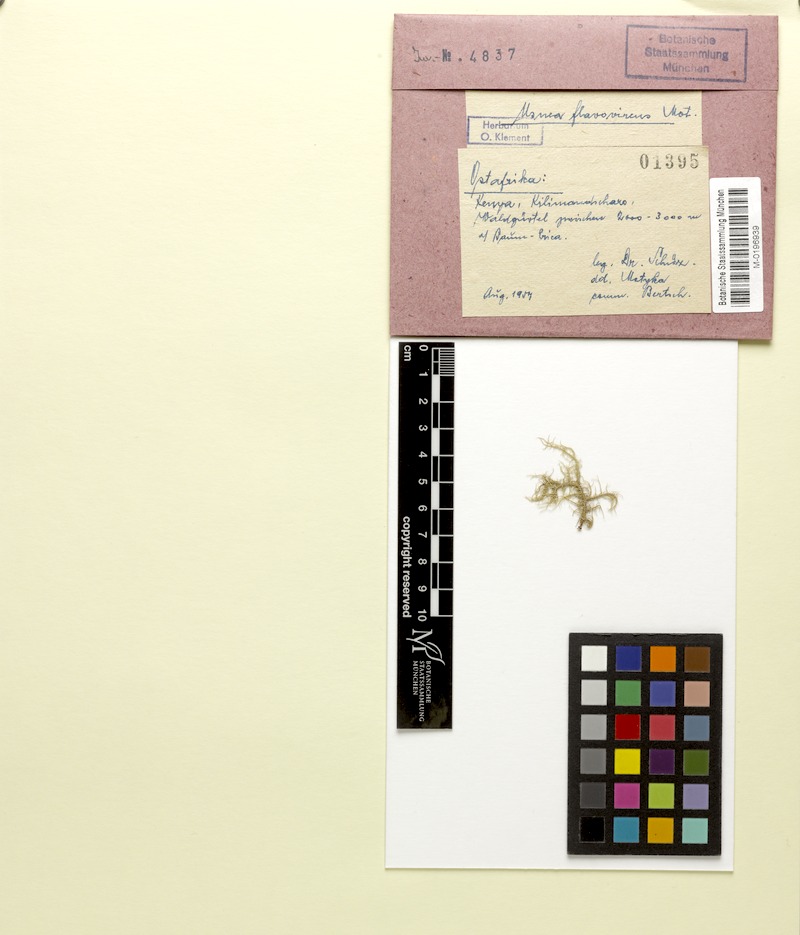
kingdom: Fungi
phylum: Ascomycota
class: Lecanoromycetes
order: Lecanorales
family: Parmeliaceae
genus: Usnea
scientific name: Usnea
